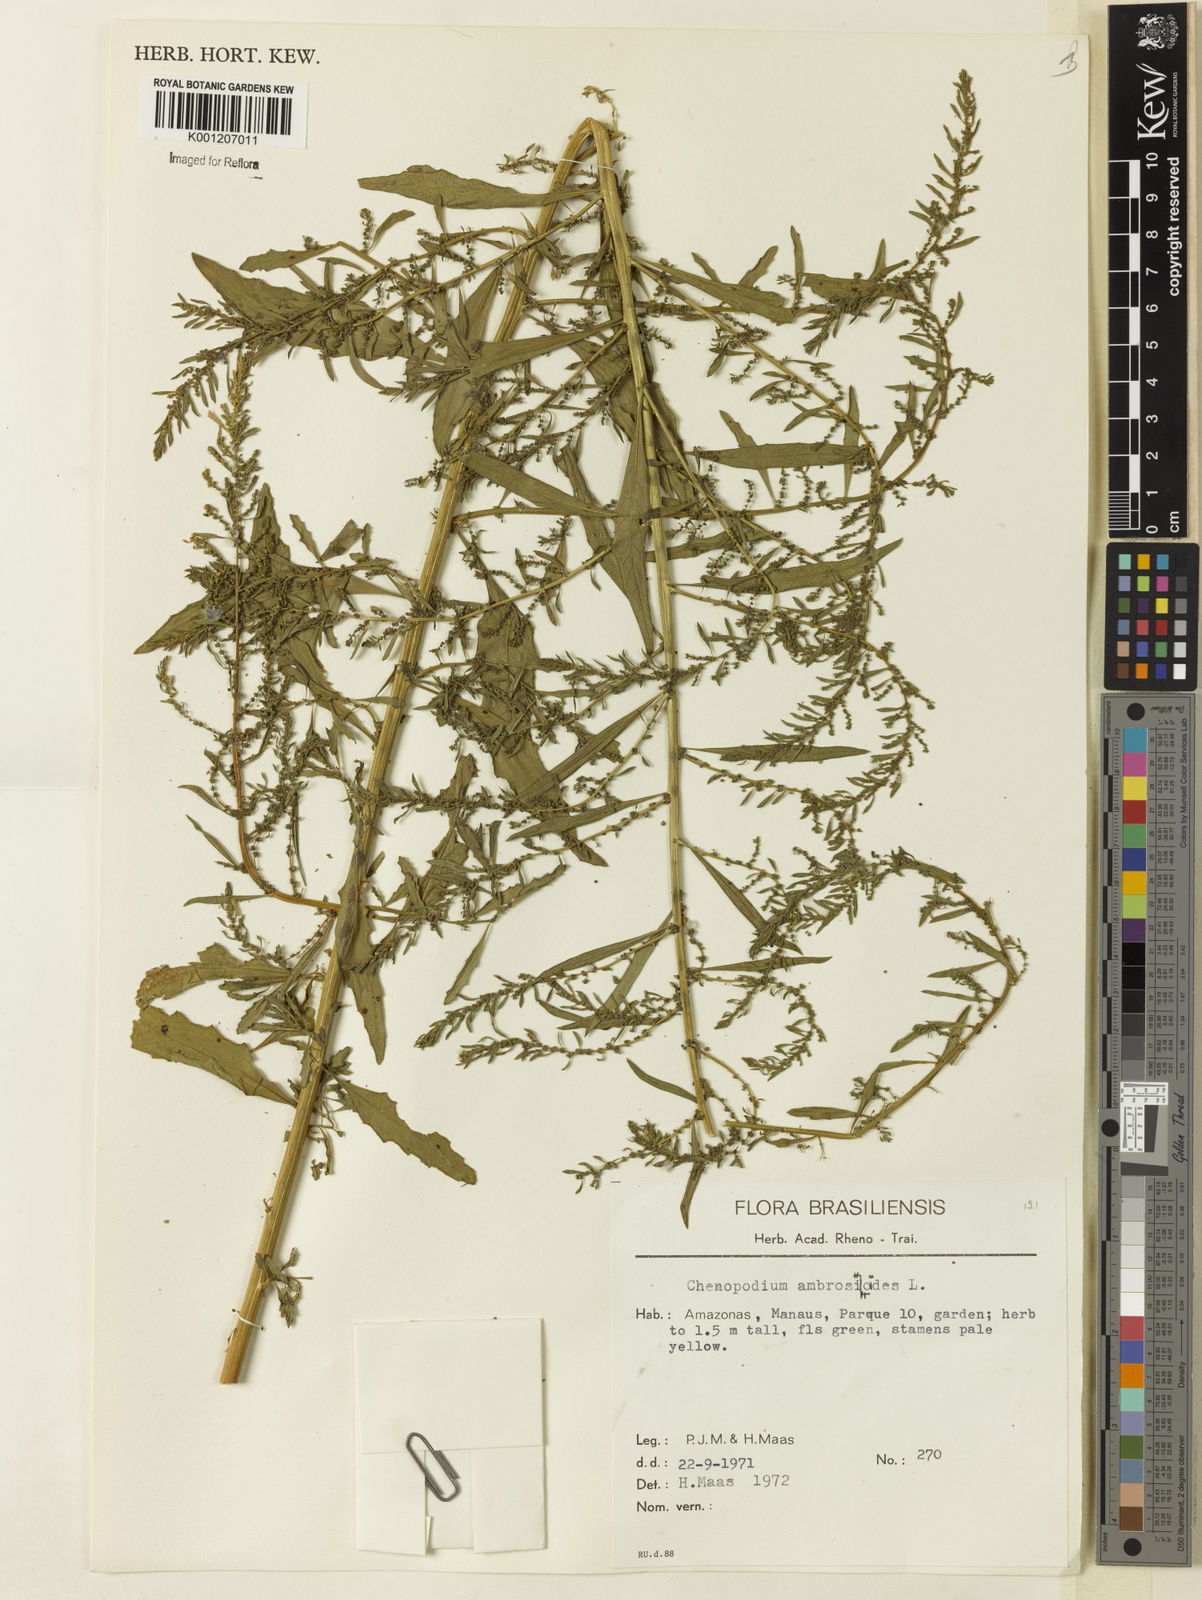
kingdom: Plantae
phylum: Tracheophyta
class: Magnoliopsida
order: Caryophyllales
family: Amaranthaceae
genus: Dysphania
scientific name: Dysphania ambrosioides
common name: Wormseed
